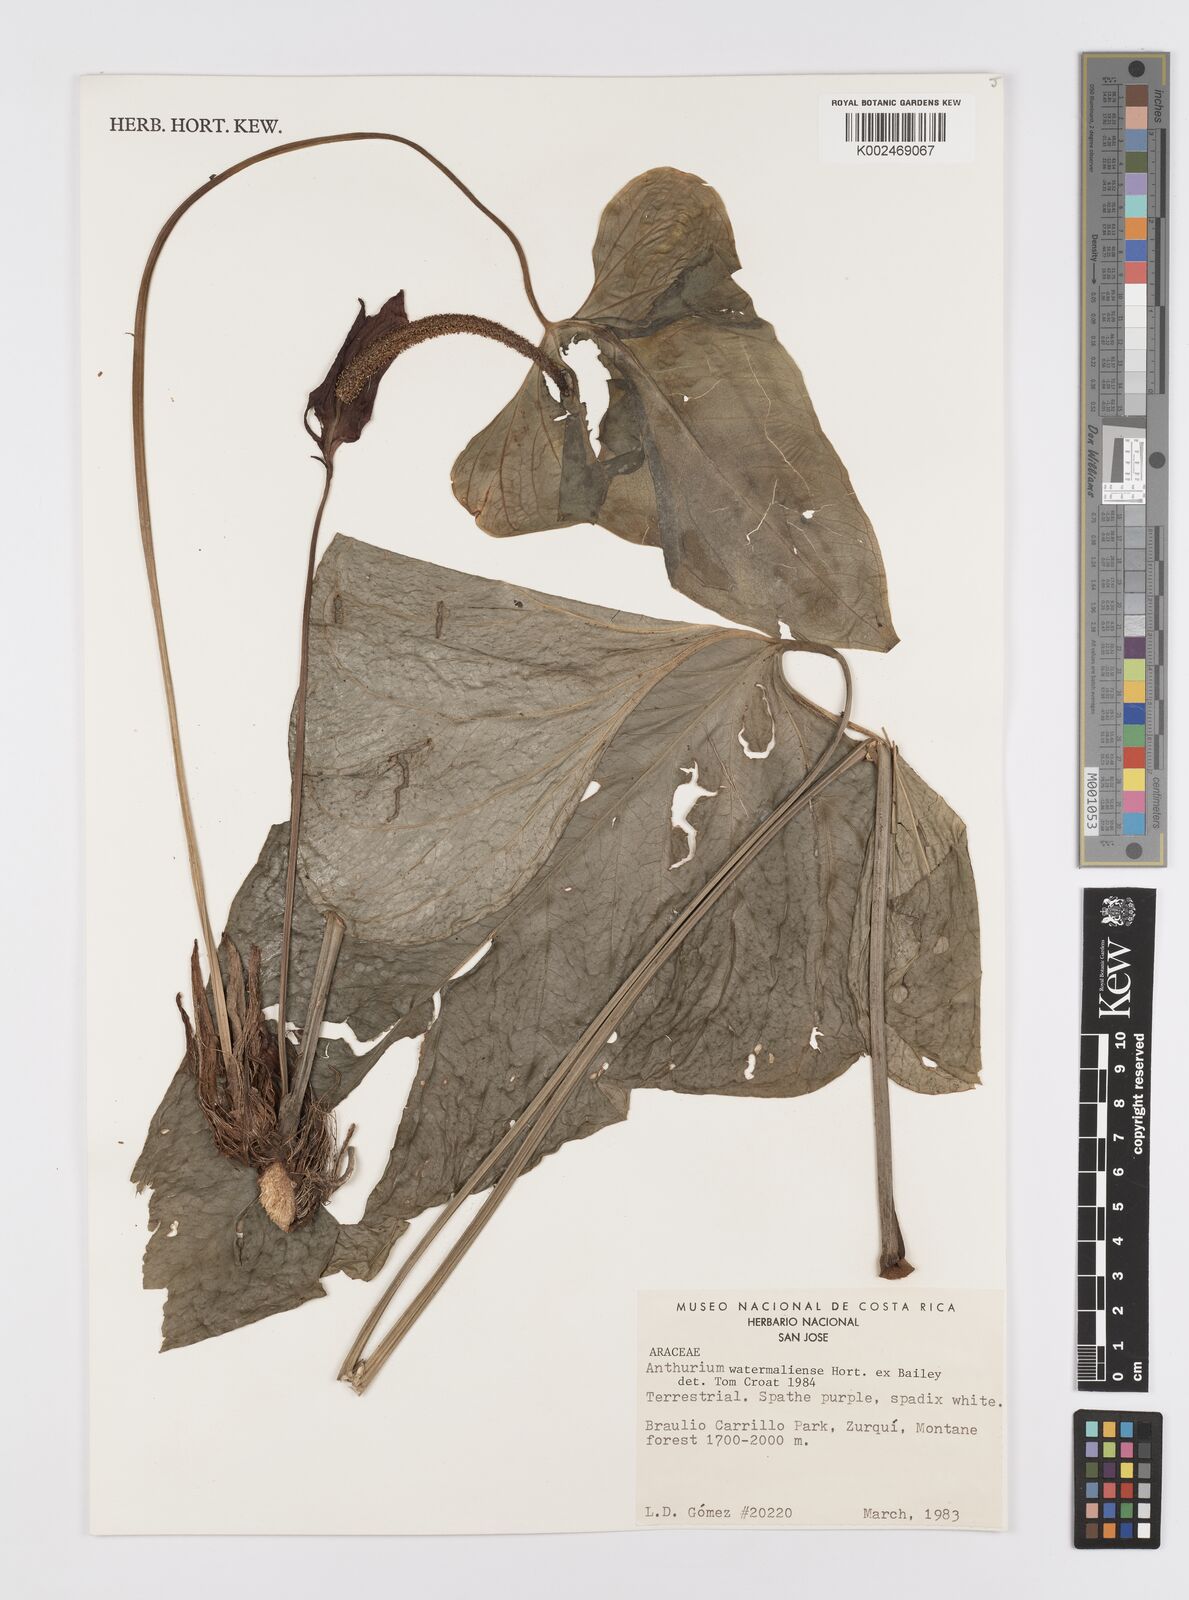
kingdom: Plantae
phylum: Tracheophyta
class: Liliopsida
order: Alismatales
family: Araceae
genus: Anthurium
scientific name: Anthurium watermaliense
